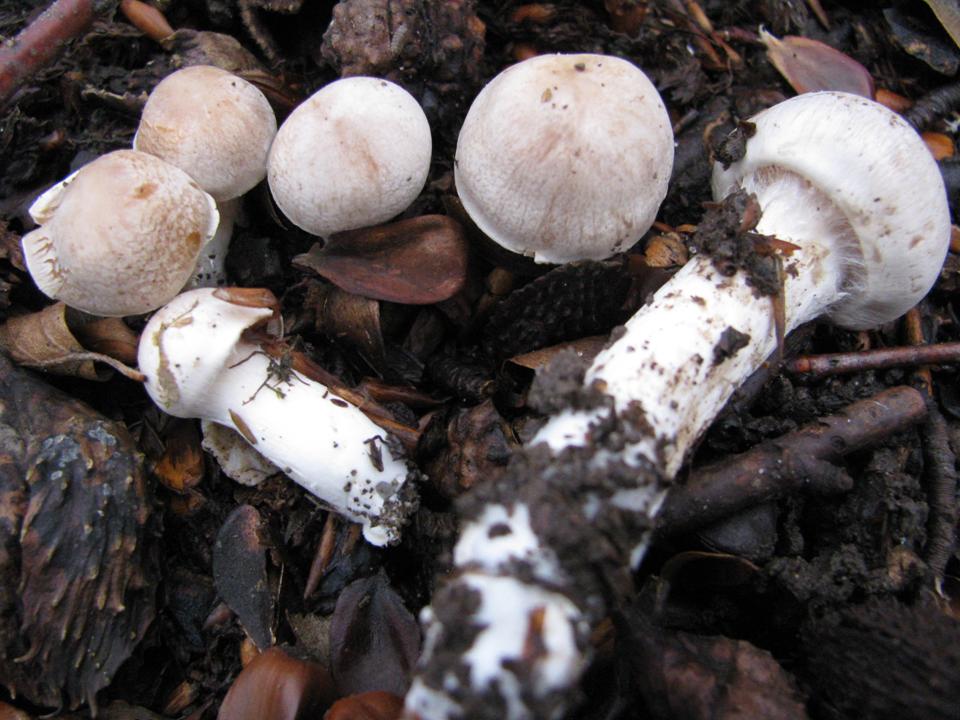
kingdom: Fungi
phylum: Basidiomycota
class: Agaricomycetes
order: Agaricales
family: Cortinariaceae
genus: Thaxterogaster
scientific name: Thaxterogaster leucoluteolus
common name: isabella slørhat
